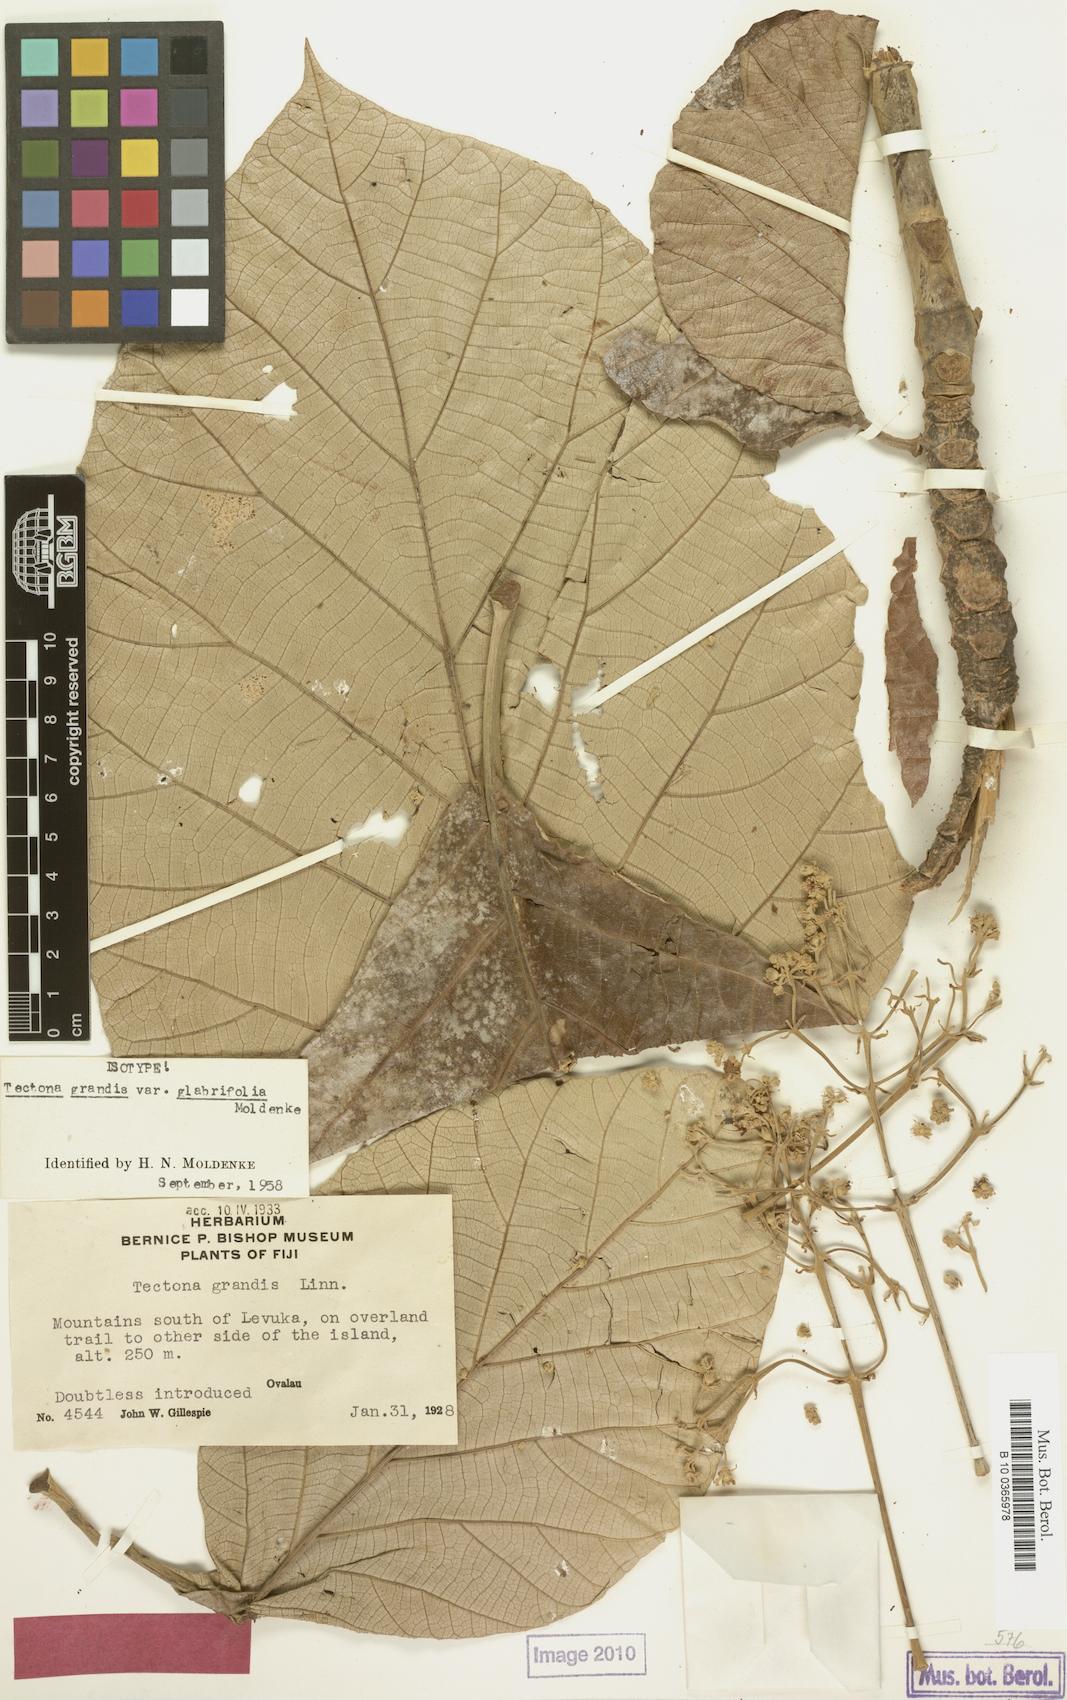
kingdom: Plantae
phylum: Tracheophyta
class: Magnoliopsida
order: Lamiales
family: Lamiaceae
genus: Tectona
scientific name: Tectona grandis
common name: Teak
